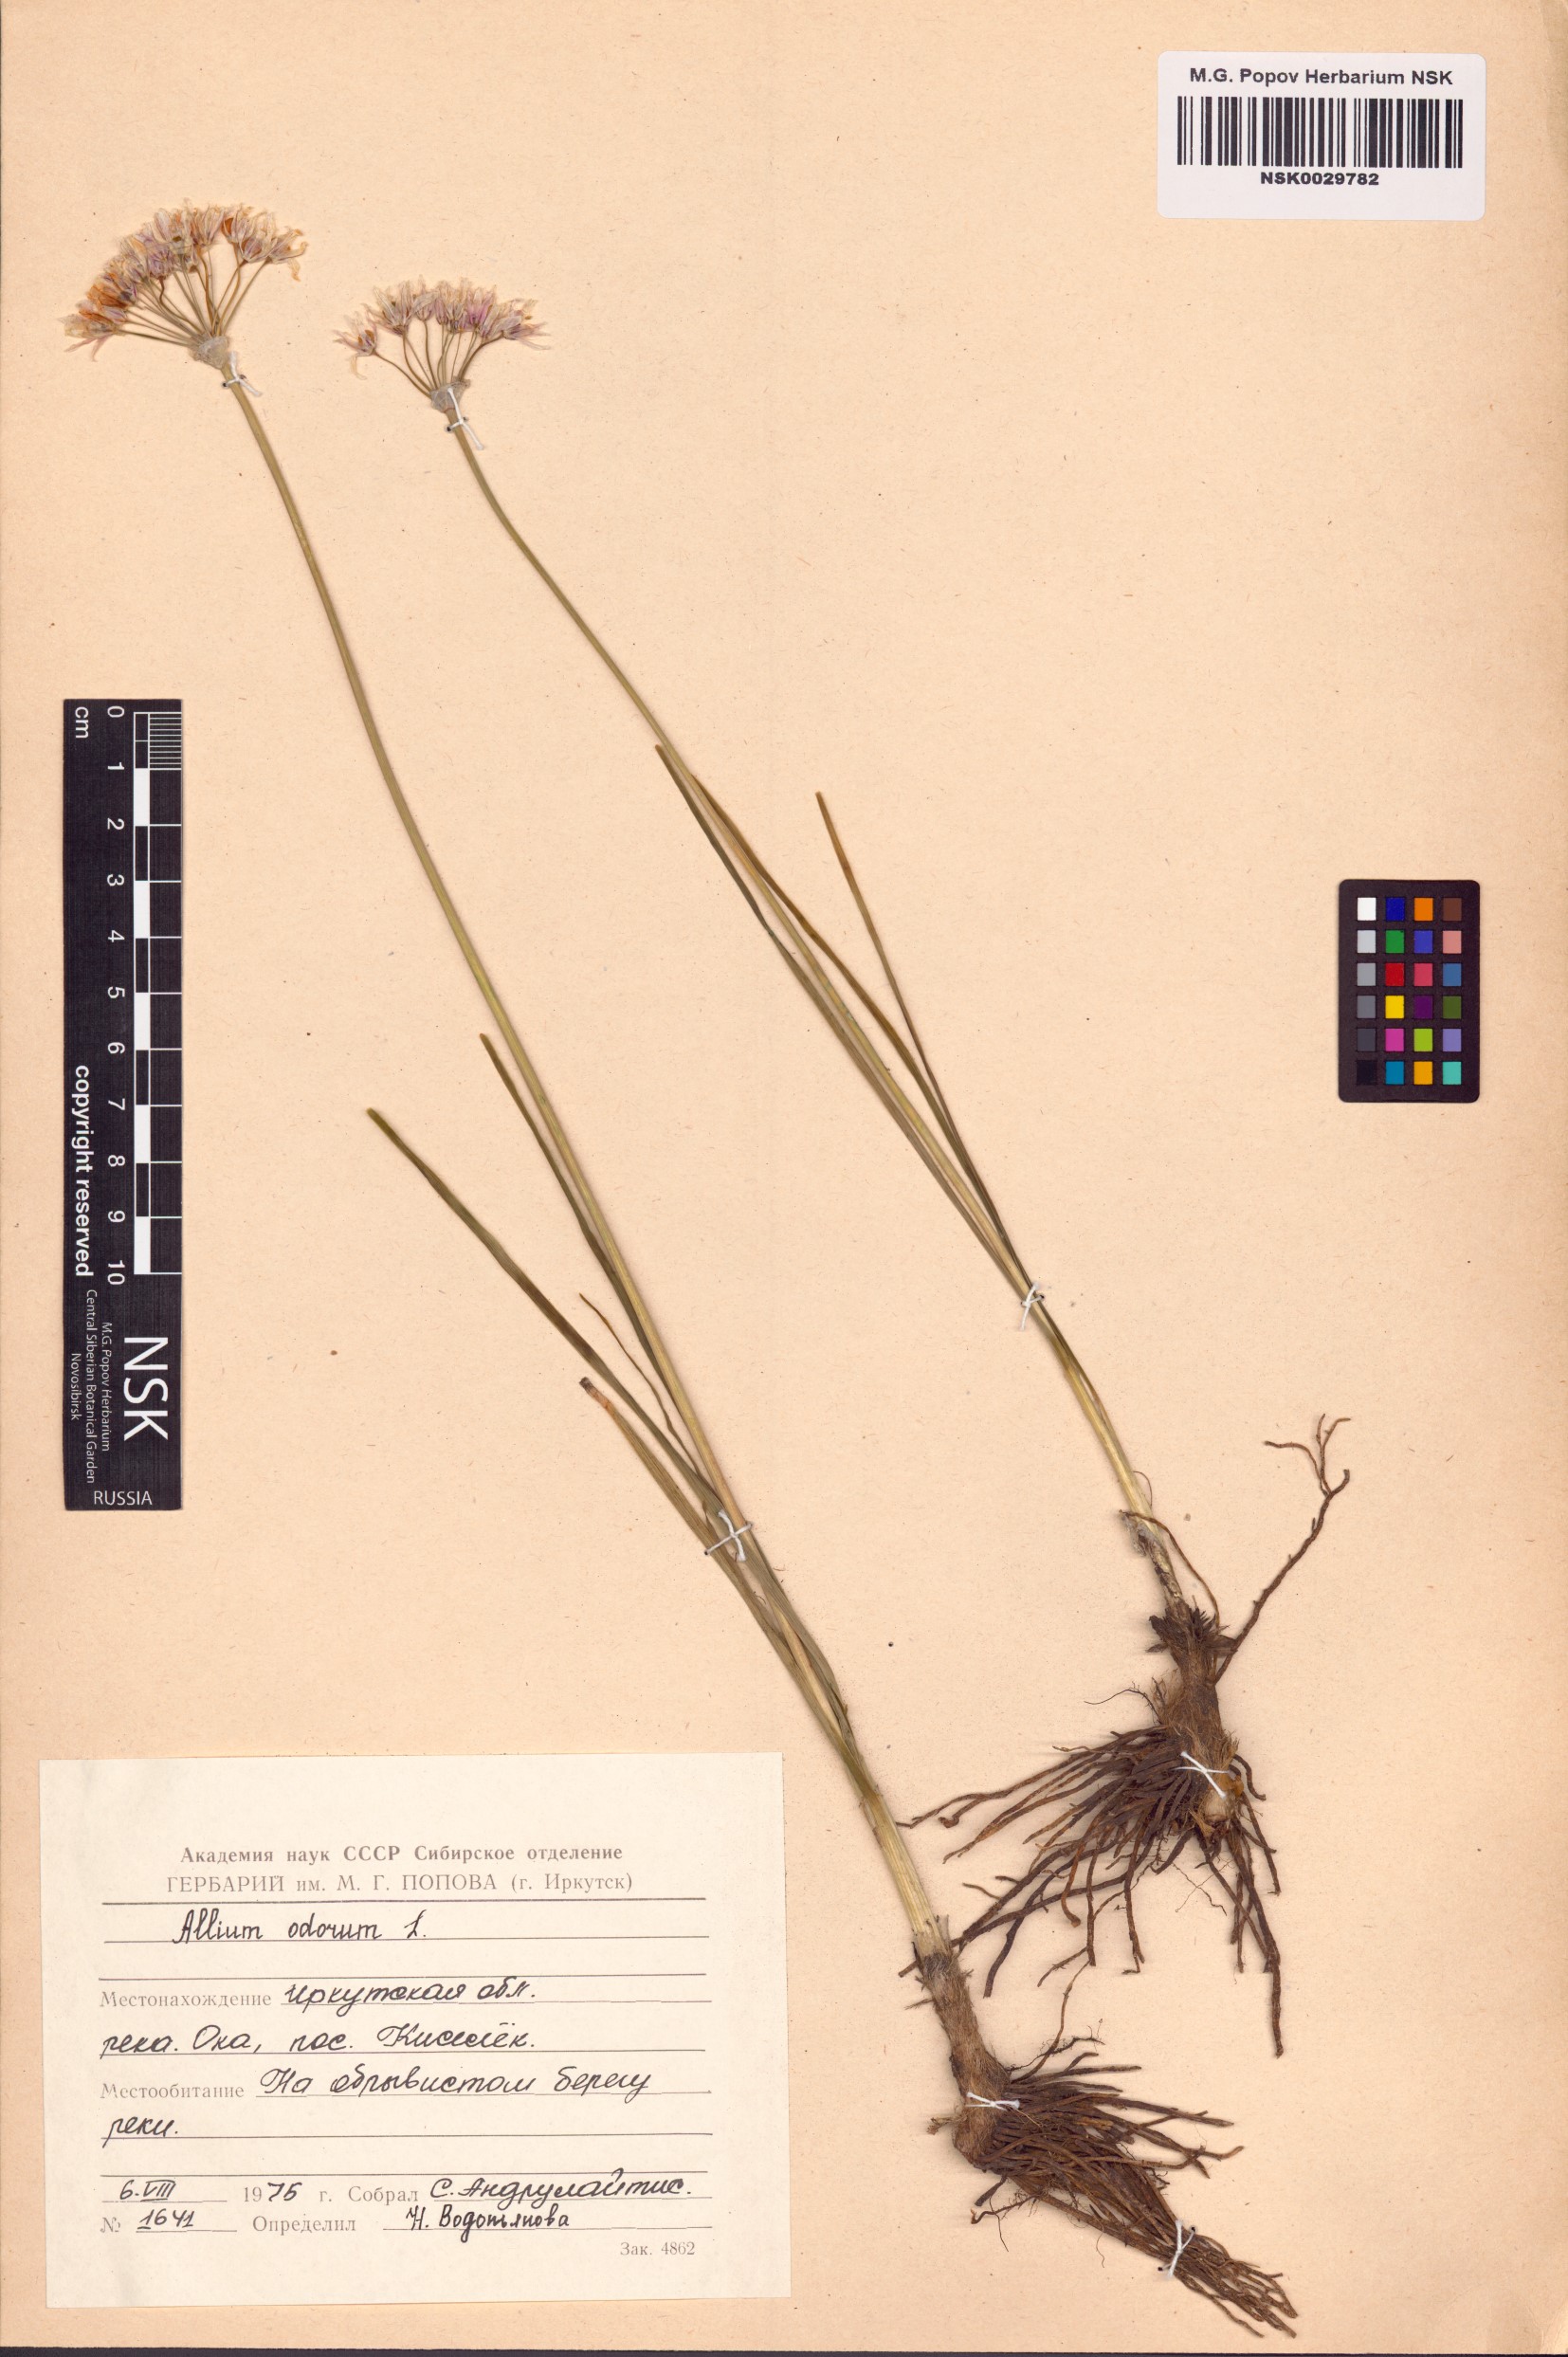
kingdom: Plantae
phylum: Tracheophyta
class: Liliopsida
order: Asparagales
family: Amaryllidaceae
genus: Allium
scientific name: Allium ramosum
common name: Fragrant garlic
